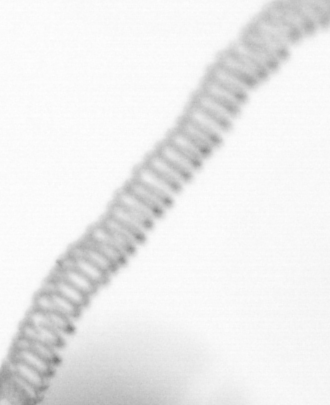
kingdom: Chromista
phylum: Ochrophyta
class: Bacillariophyceae
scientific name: Bacillariophyceae
